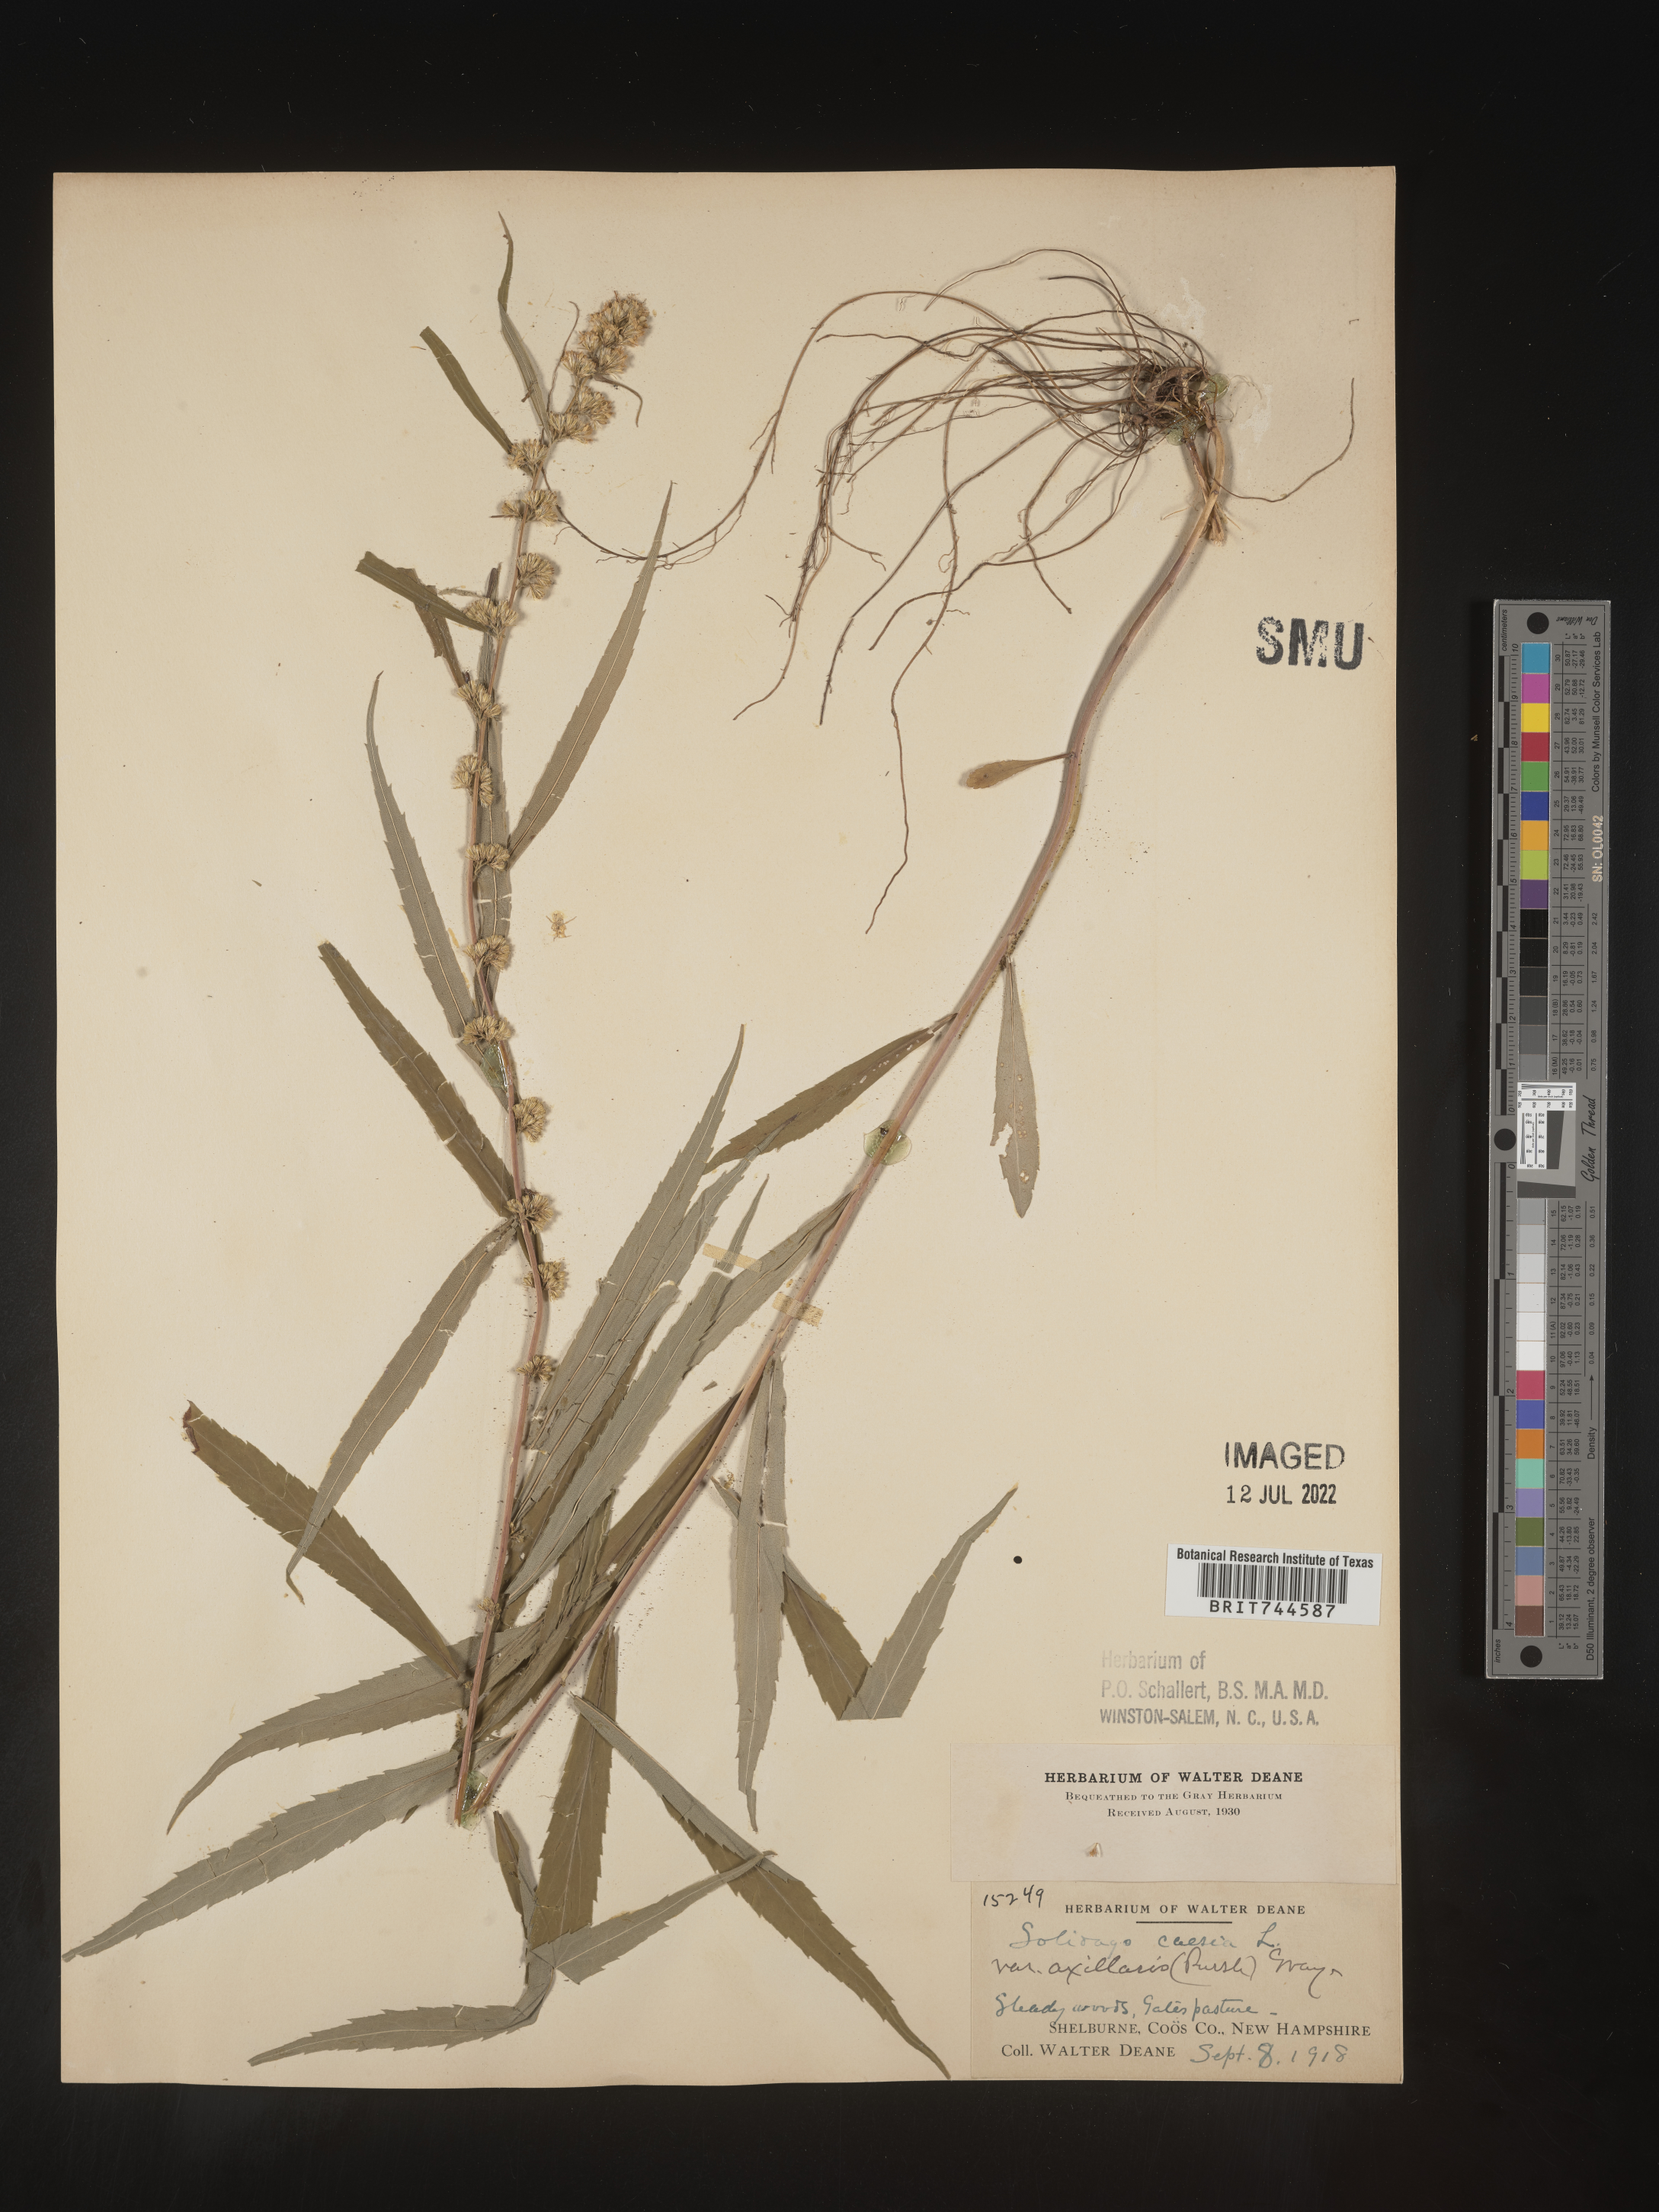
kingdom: Plantae
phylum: Tracheophyta
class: Magnoliopsida
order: Asterales
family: Asteraceae
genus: Solidago
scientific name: Solidago caesia
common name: Woodland goldenrod
